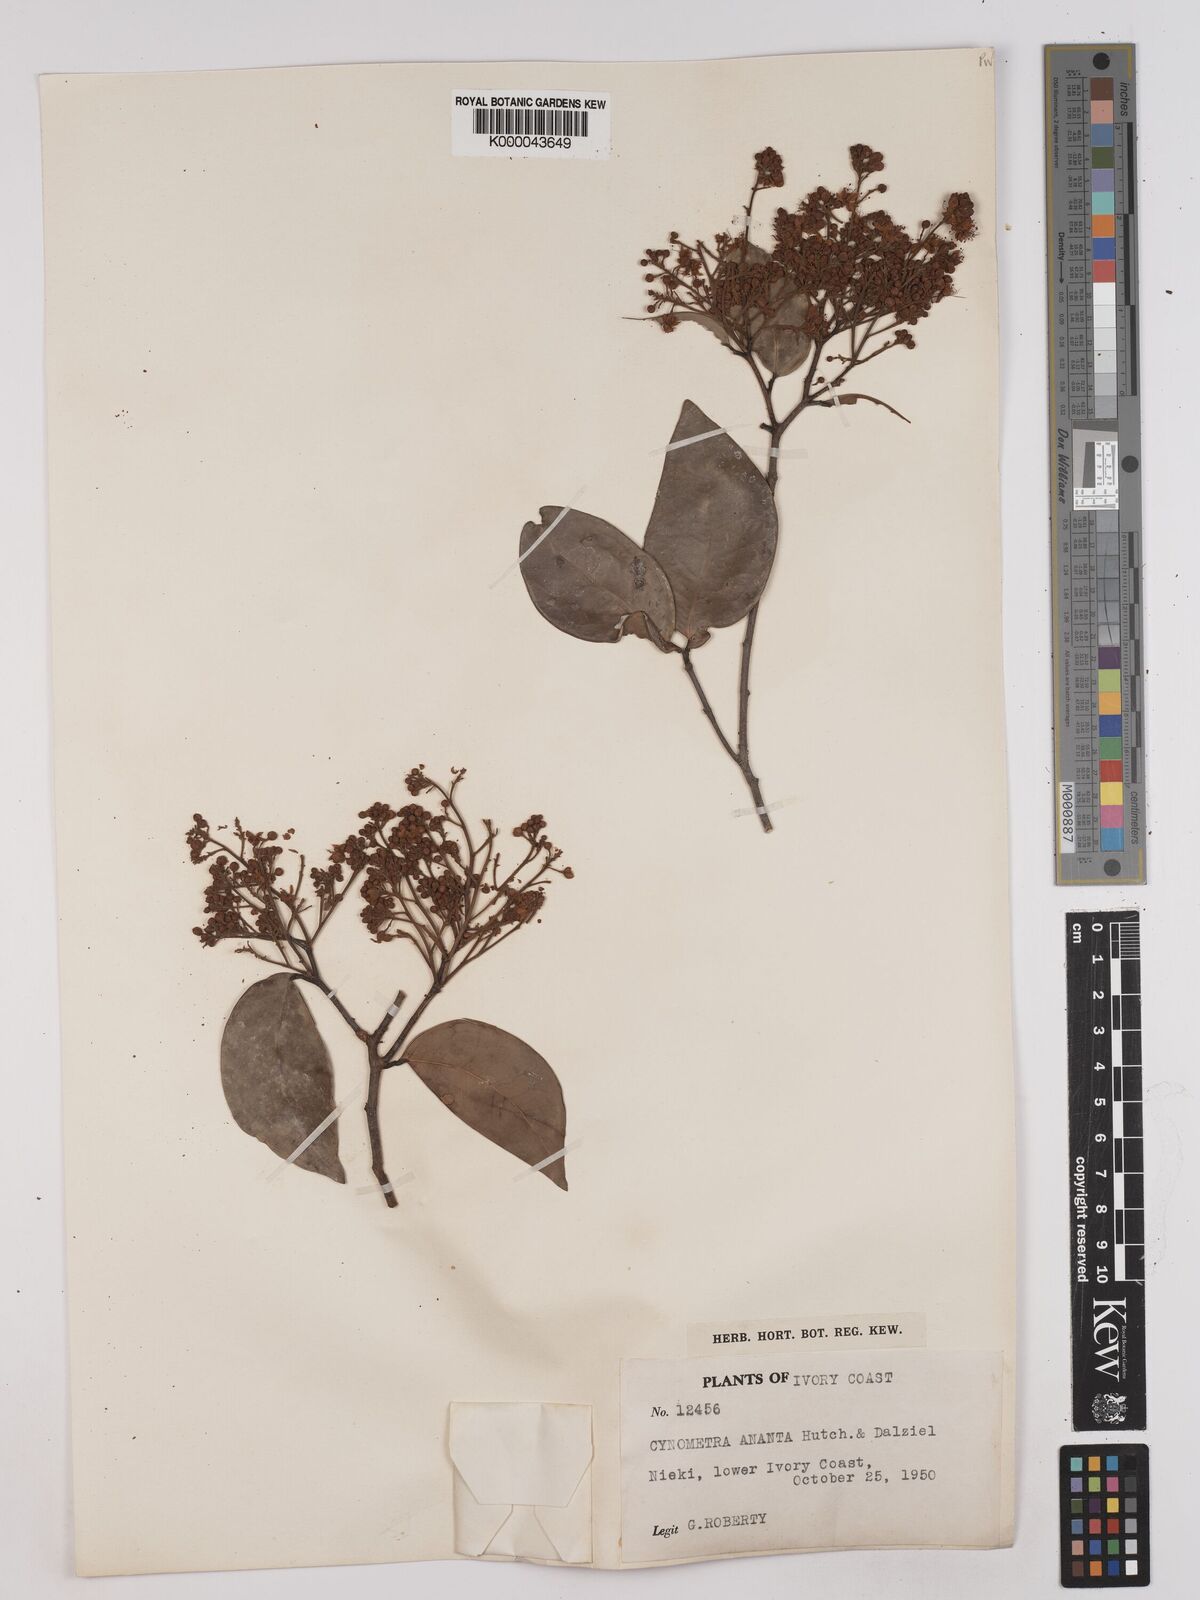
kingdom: Plantae
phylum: Tracheophyta
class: Magnoliopsida
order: Fabales
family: Fabaceae
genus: Cynometra
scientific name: Cynometra ananta
